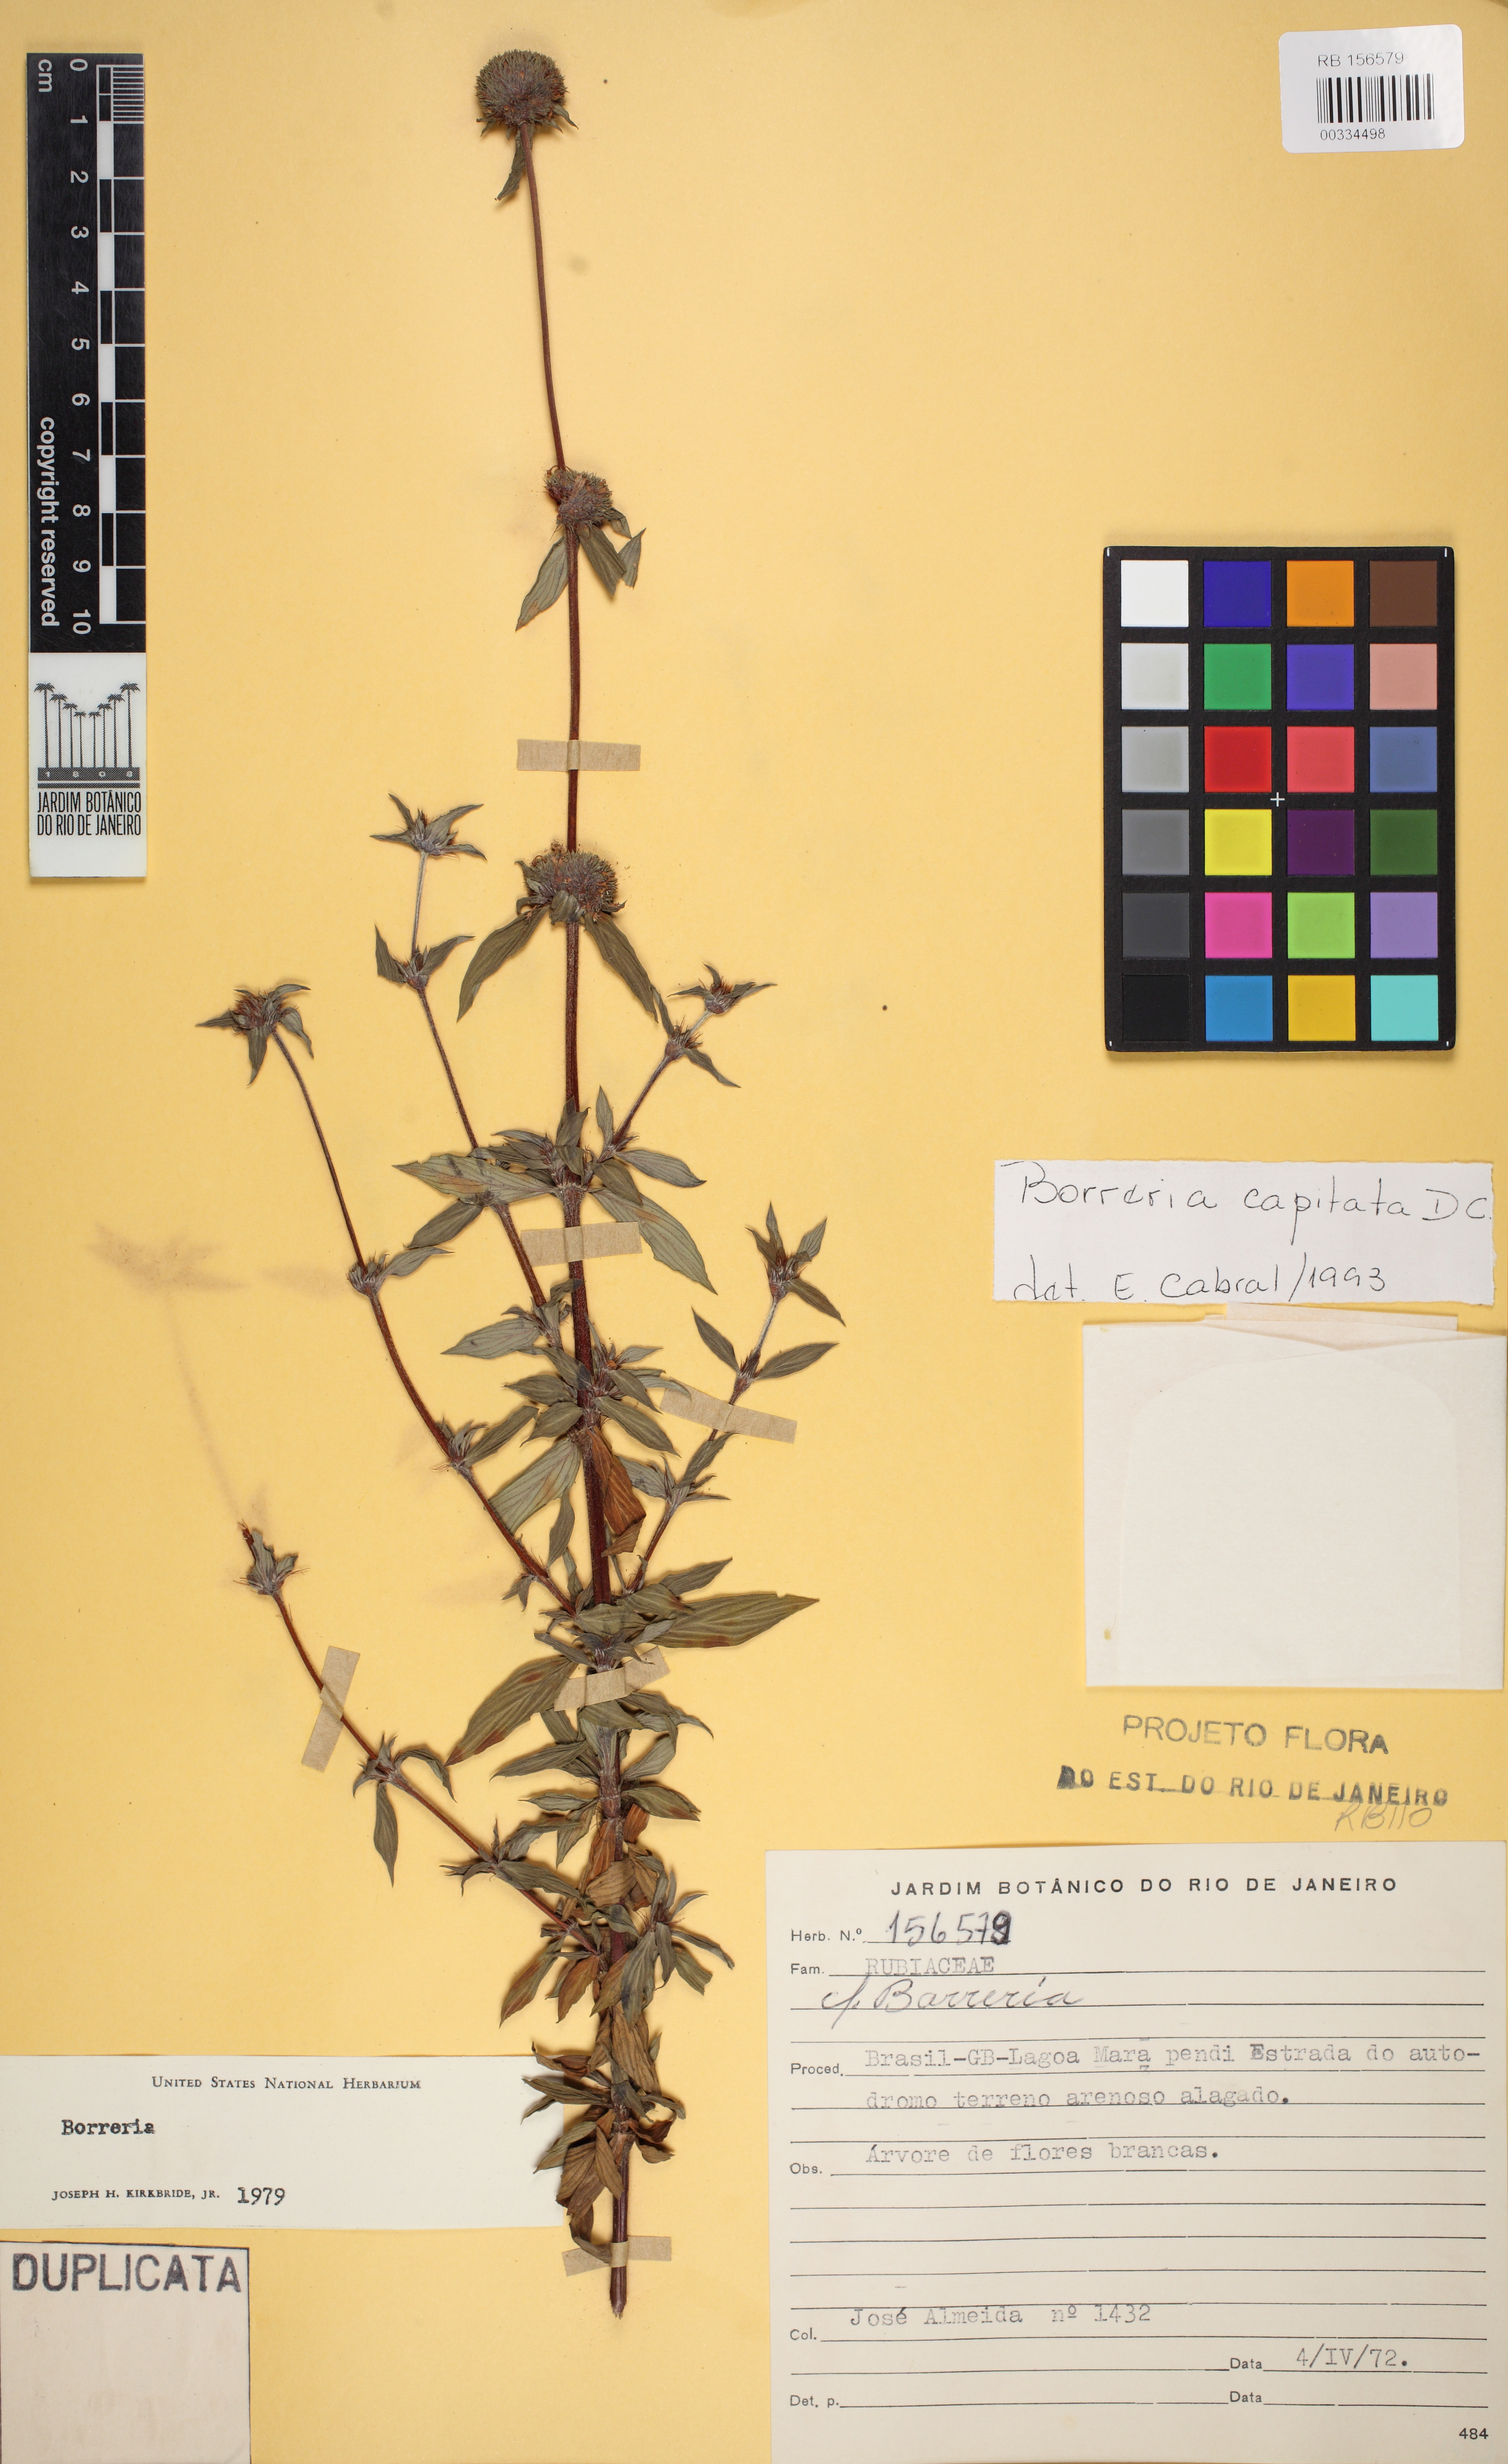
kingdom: Plantae
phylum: Tracheophyta
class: Magnoliopsida
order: Gentianales
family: Rubiaceae
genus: Spermacoce
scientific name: Spermacoce capitata
